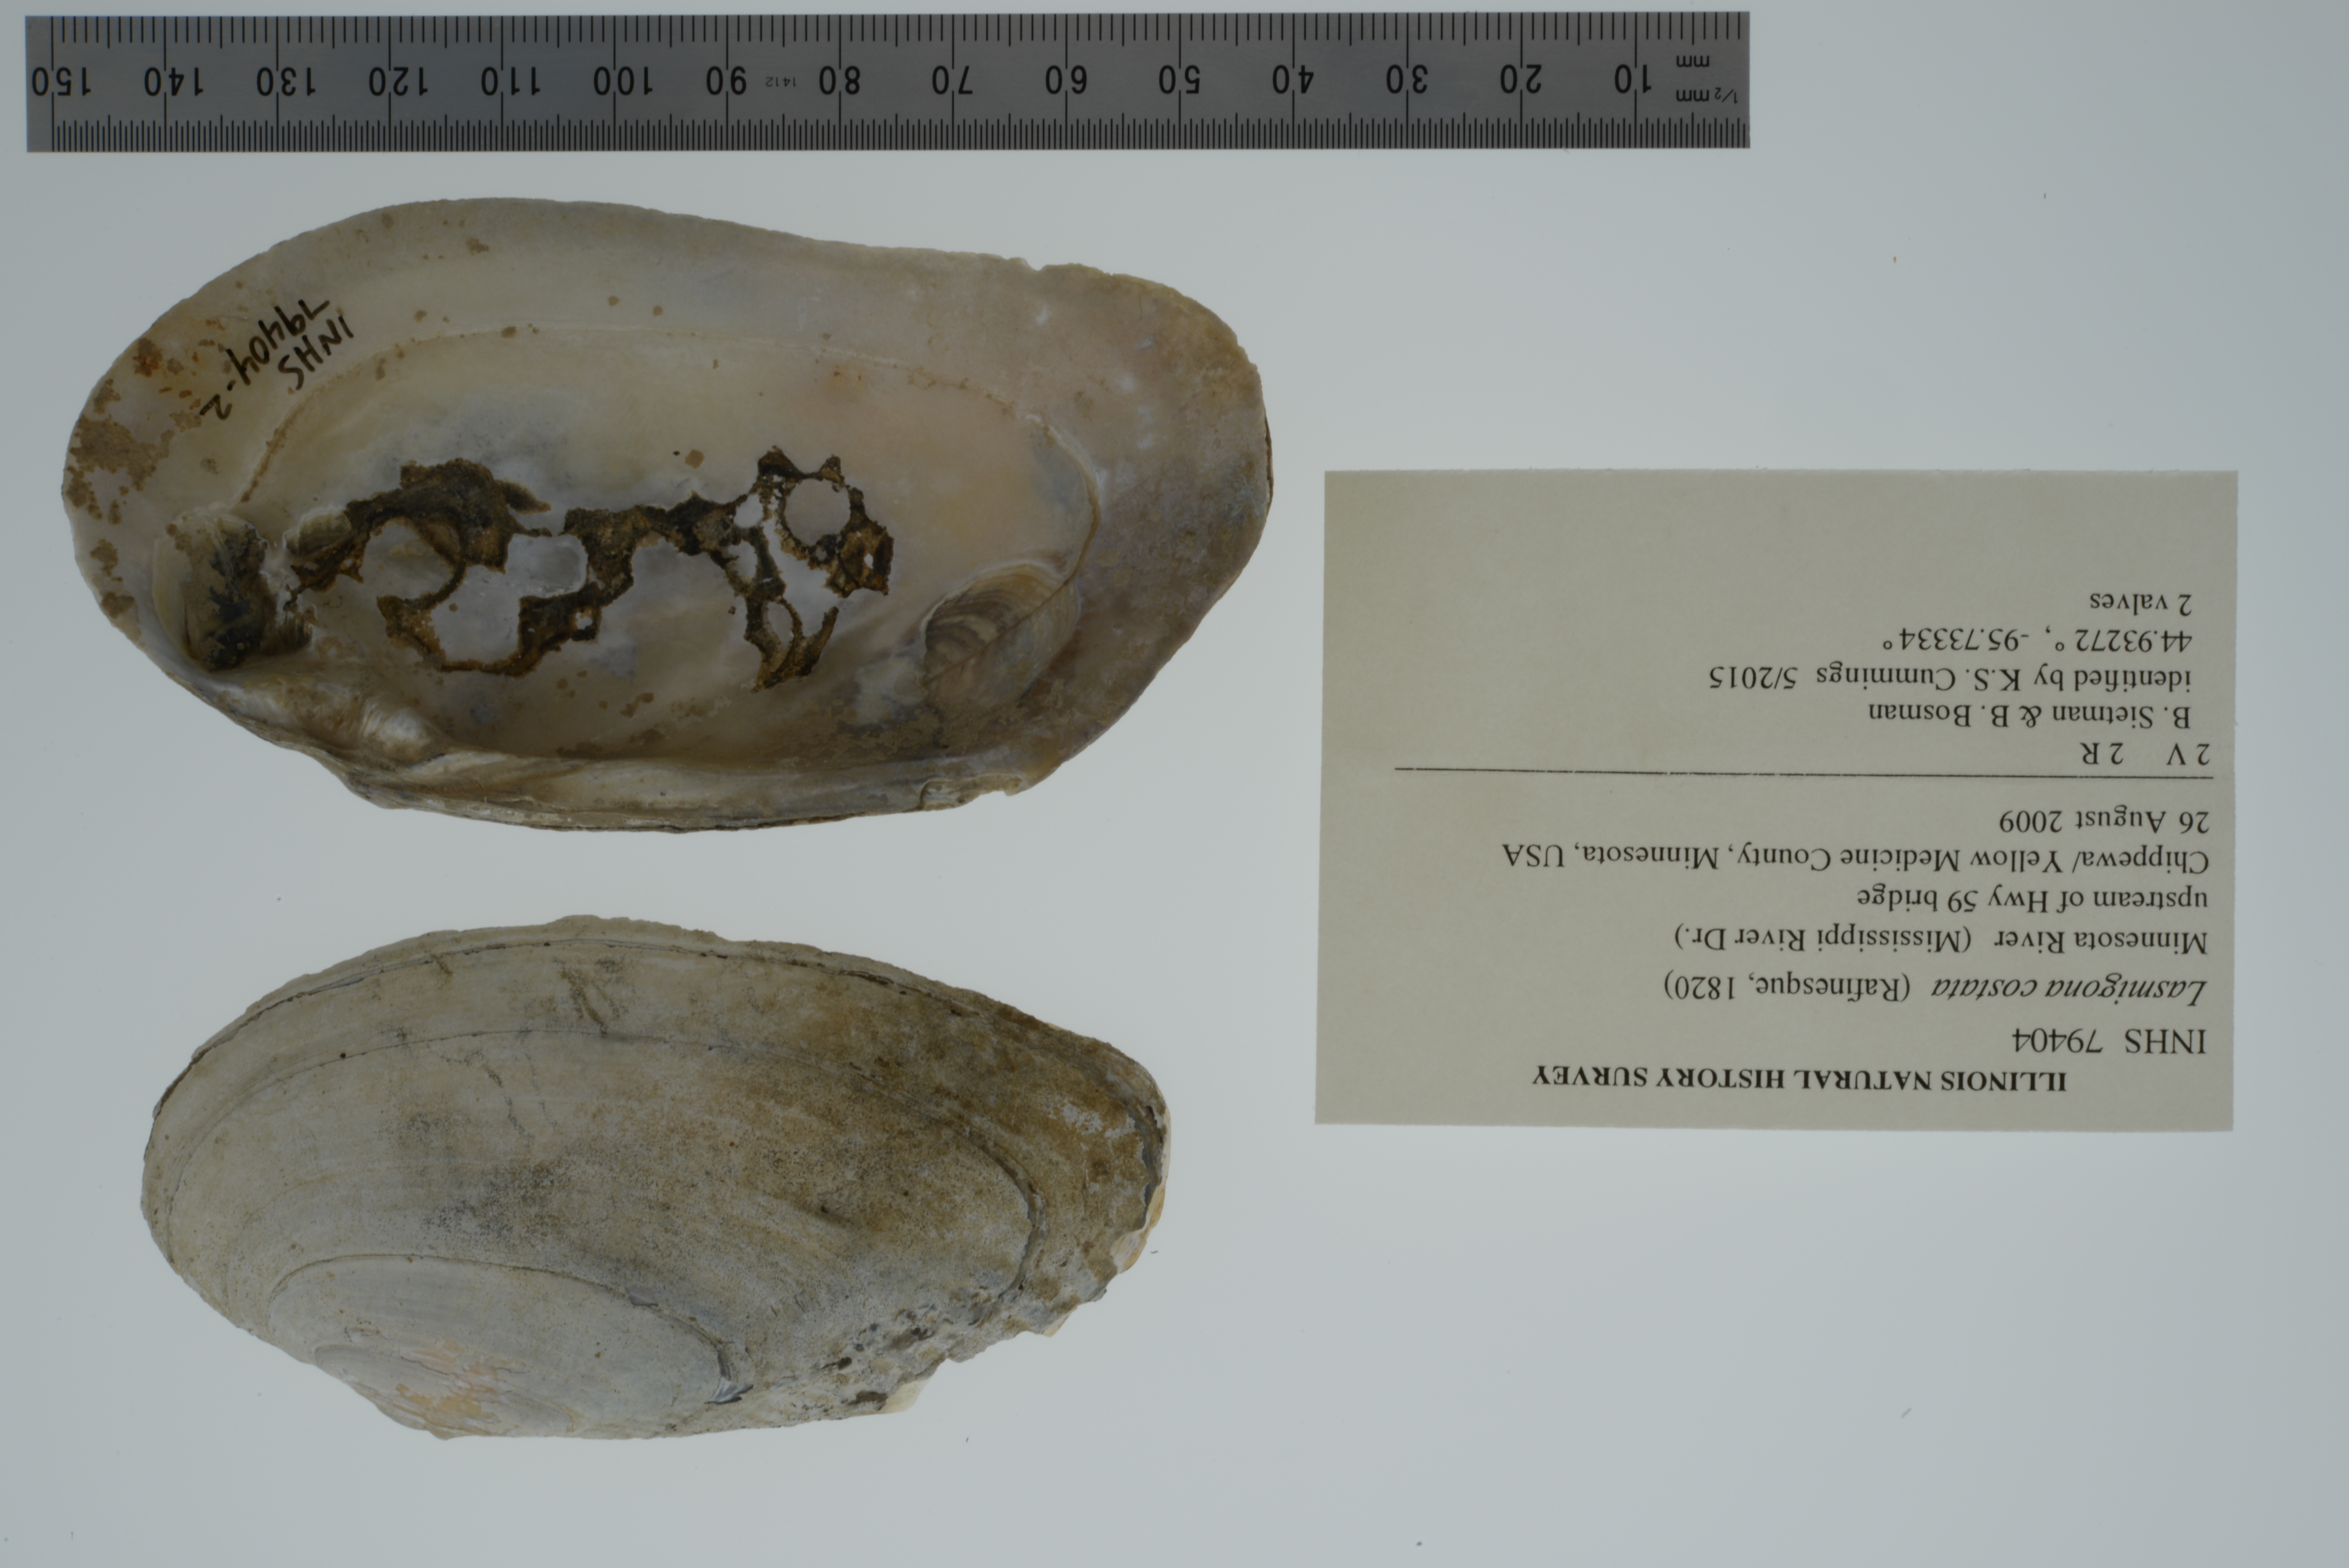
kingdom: Animalia
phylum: Mollusca
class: Bivalvia
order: Unionida
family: Unionidae
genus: Lasmigona
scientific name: Lasmigona costata
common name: Flutedshell
